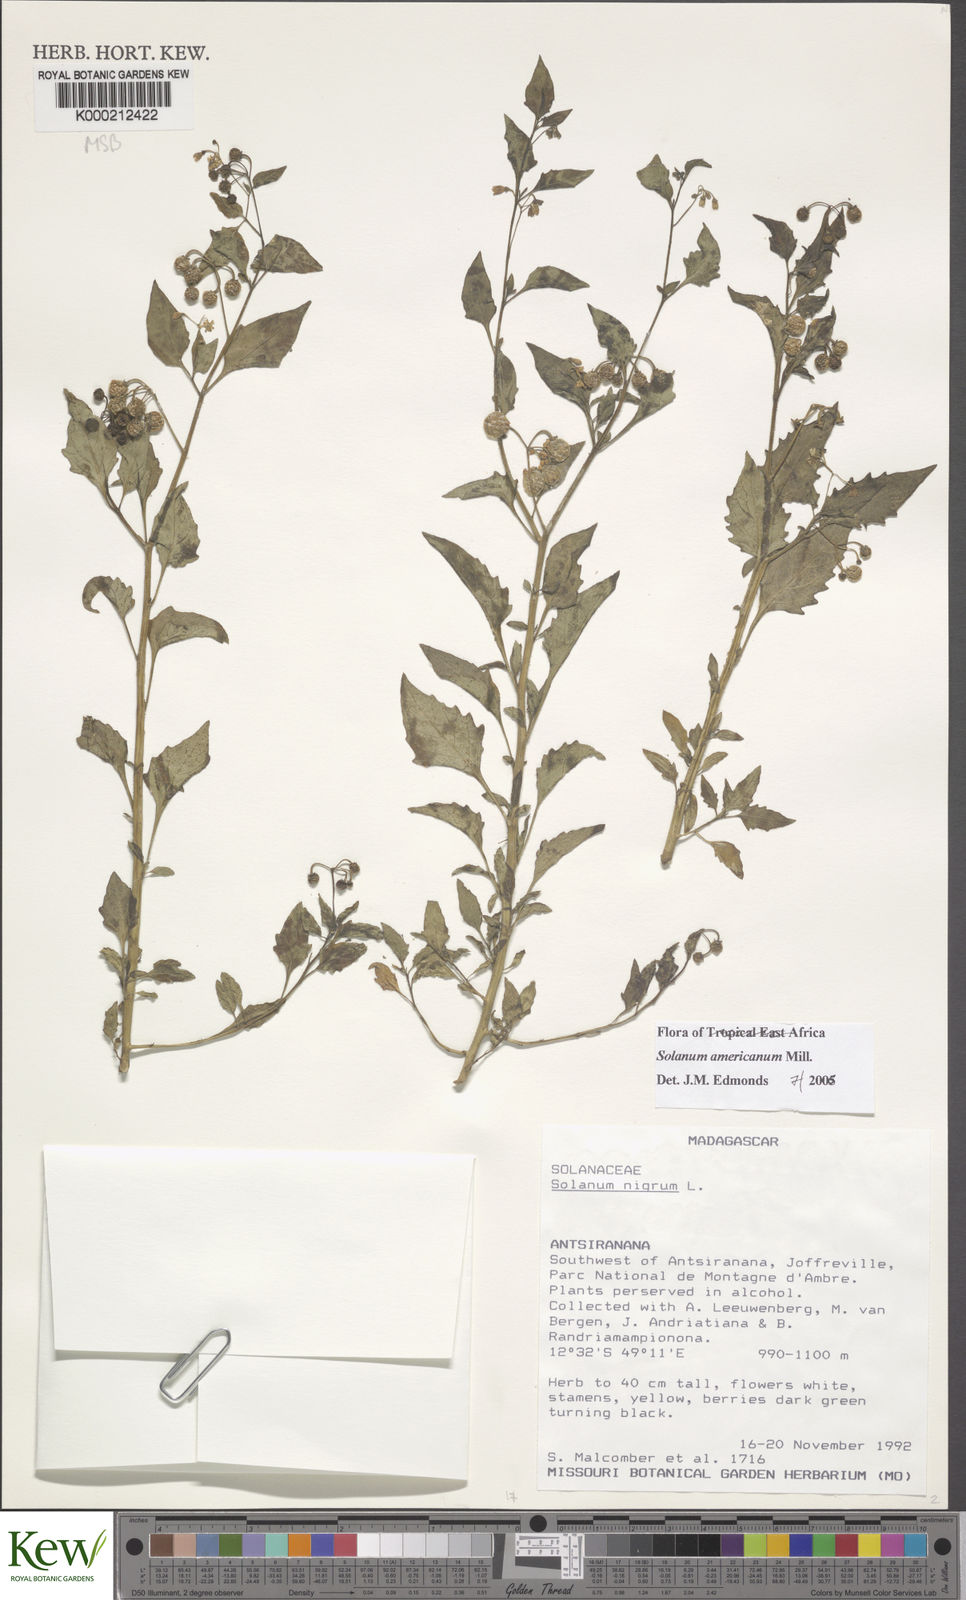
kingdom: Plantae
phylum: Tracheophyta
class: Magnoliopsida
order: Solanales
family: Solanaceae
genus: Solanum
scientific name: Solanum americanum
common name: American black nightshade
